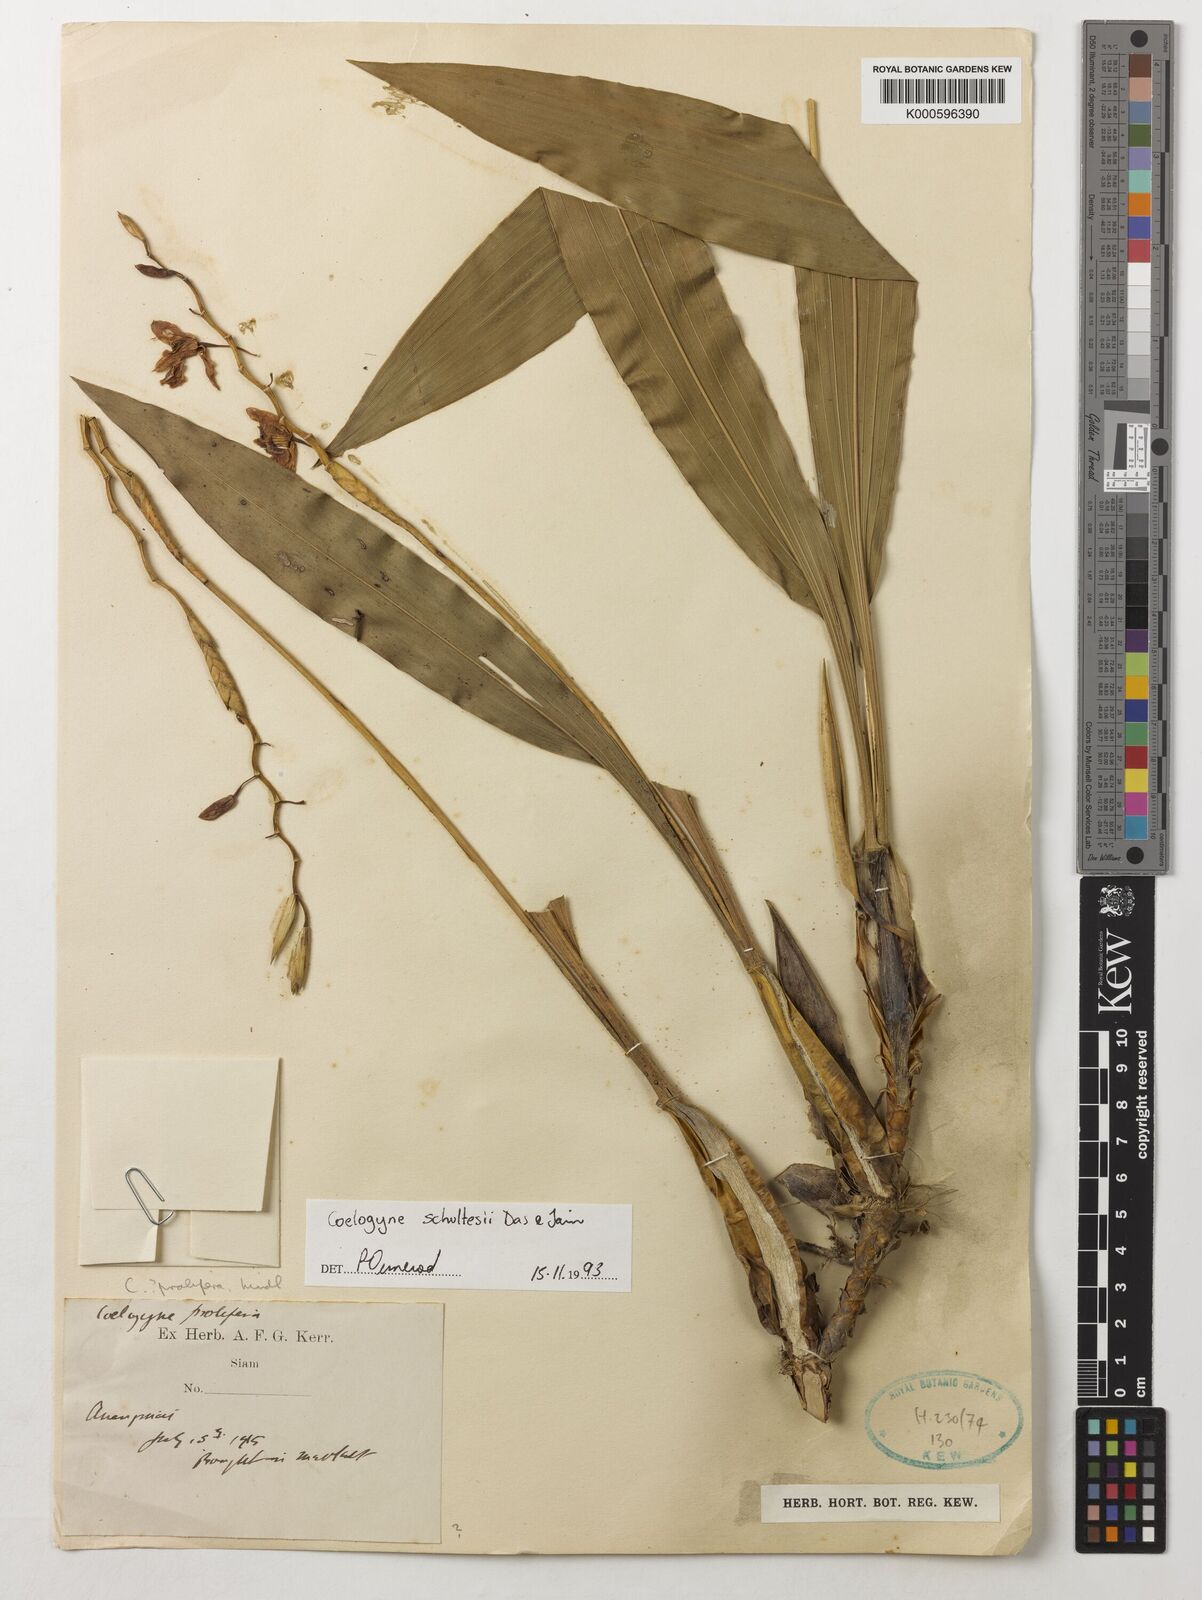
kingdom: Plantae
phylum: Tracheophyta
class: Liliopsida
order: Asparagales
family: Orchidaceae
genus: Coelogyne
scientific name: Coelogyne schultesii
